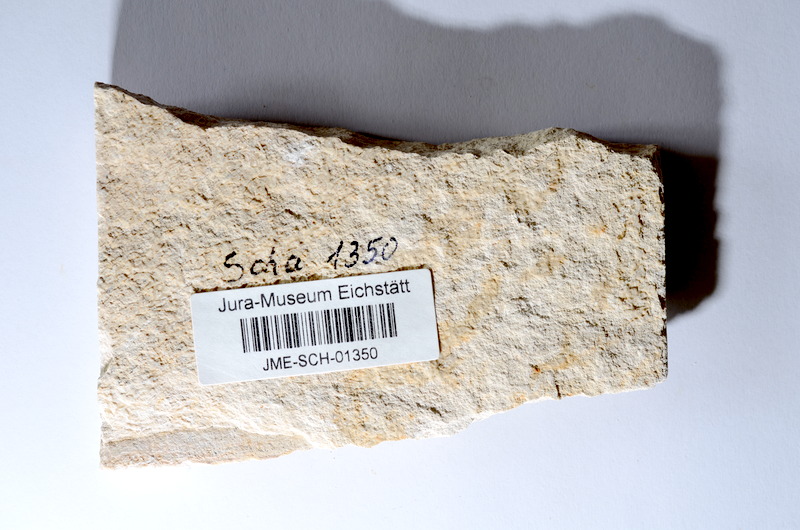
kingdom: Animalia
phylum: Chordata
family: Ascalaboidae
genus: Tharsis
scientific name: Tharsis dubius
